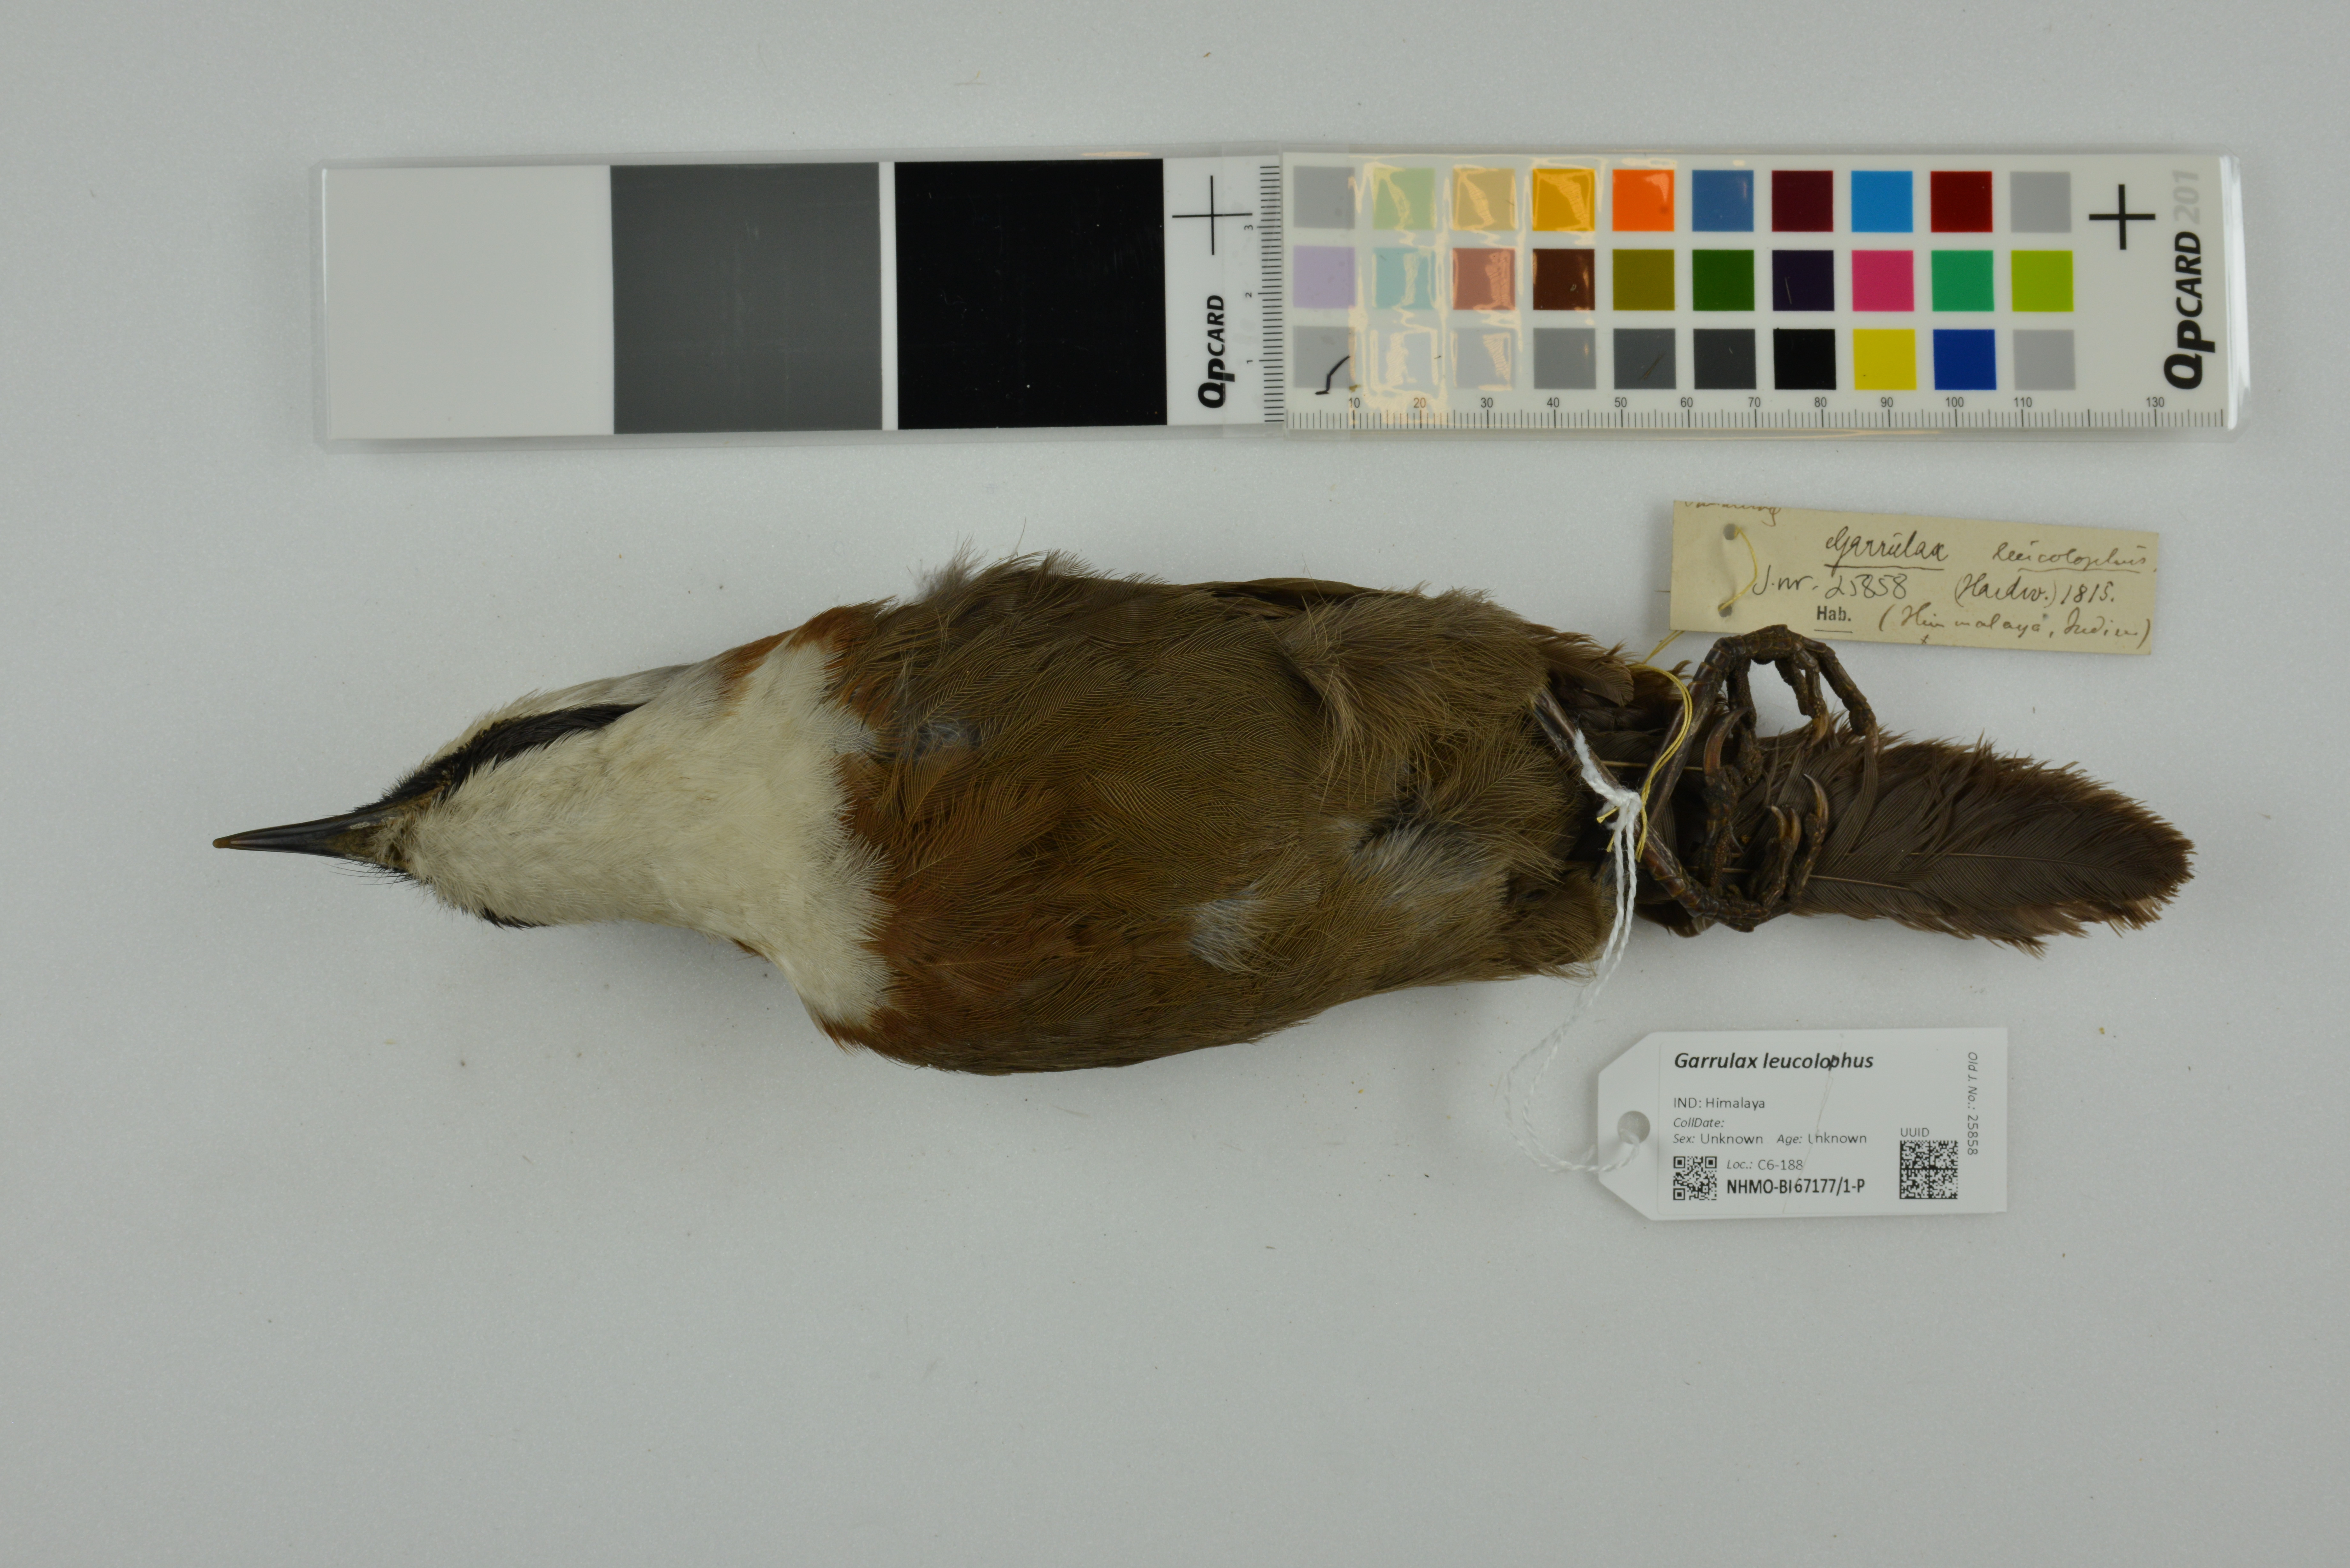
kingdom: Animalia
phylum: Chordata
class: Aves
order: Passeriformes
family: Leiothrichidae
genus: Garrulax
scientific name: Garrulax leucolophus
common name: White-crested laughingthrush
